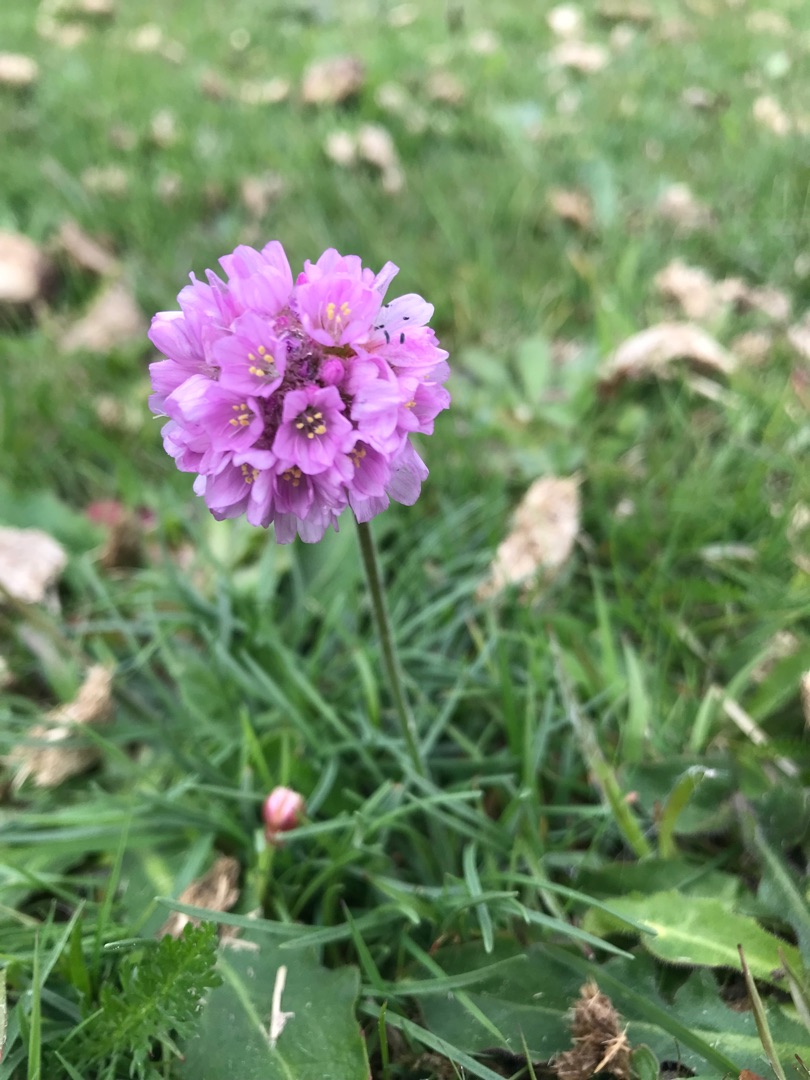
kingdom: Plantae
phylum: Tracheophyta
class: Magnoliopsida
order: Caryophyllales
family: Plumbaginaceae
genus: Armeria
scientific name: Armeria maritima
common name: Engelskgræs
